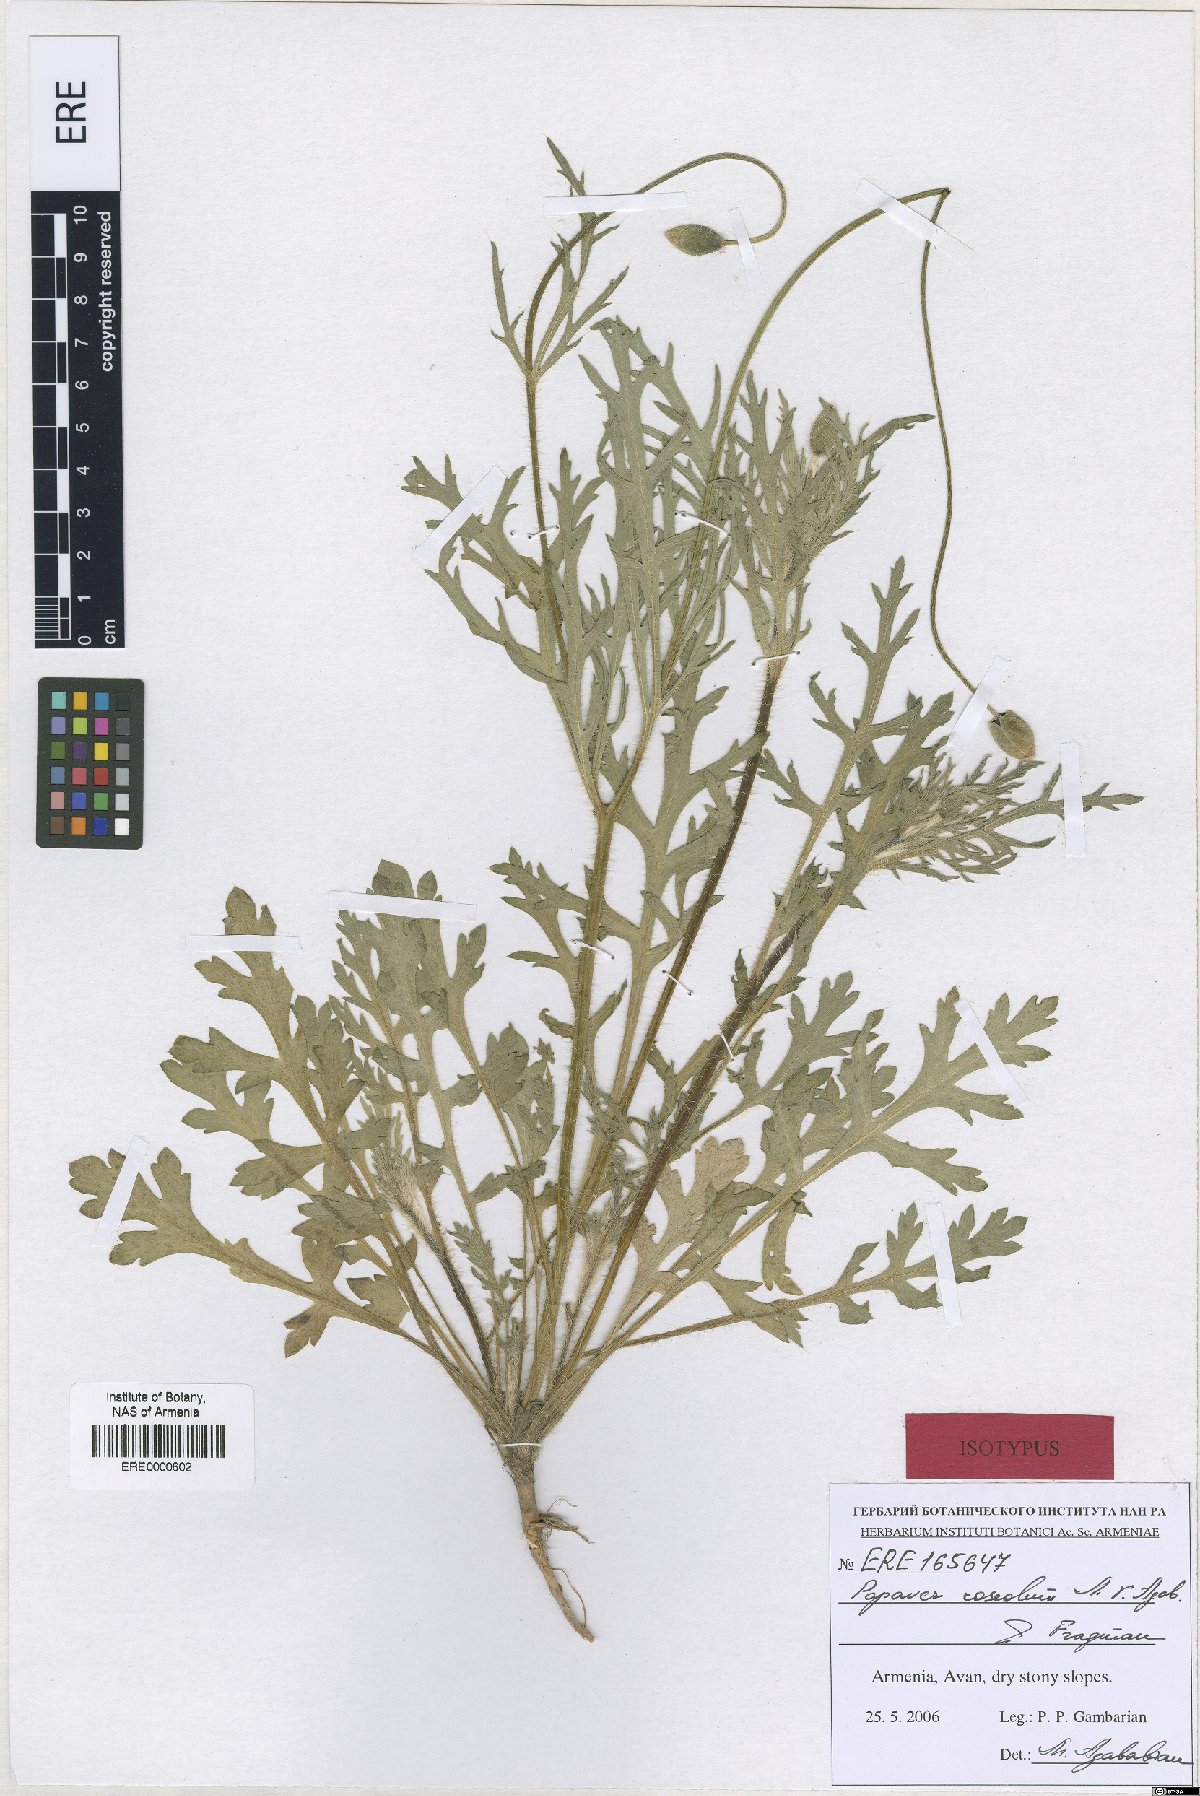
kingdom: Plantae
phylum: Tracheophyta
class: Magnoliopsida
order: Ranunculales
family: Papaveraceae
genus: Papaver
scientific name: Papaver roseolum
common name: Pinkish poppy
